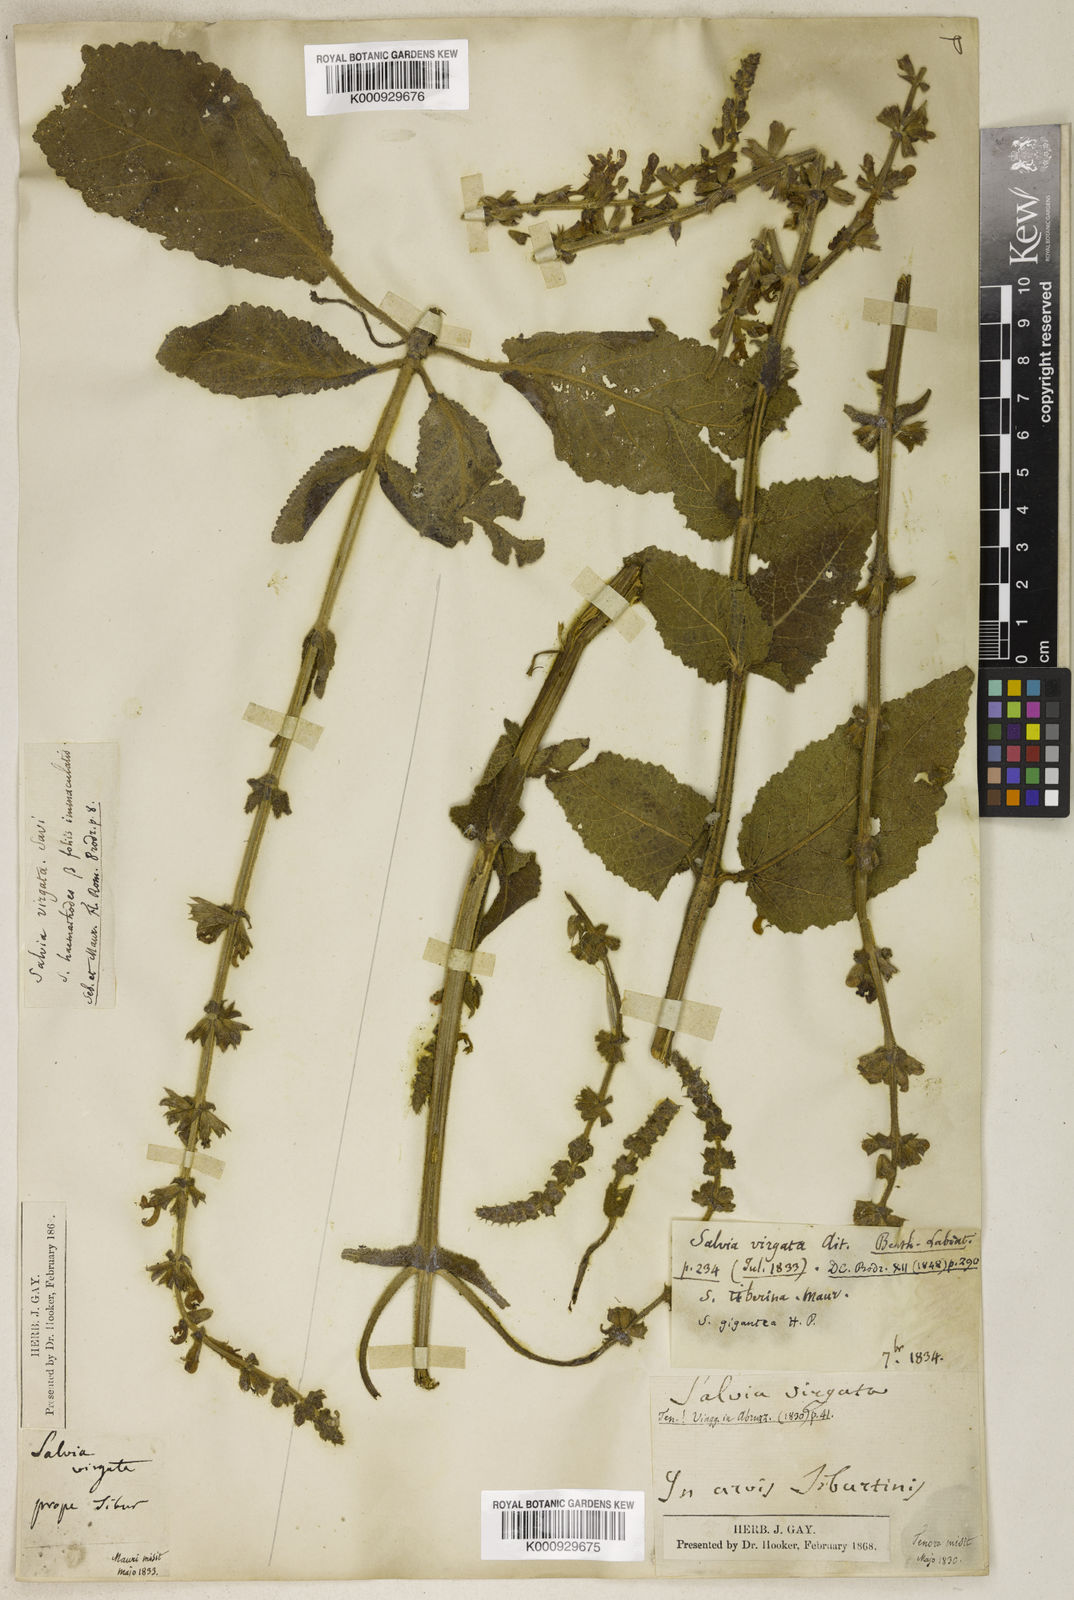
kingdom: Plantae
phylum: Tracheophyta
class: Magnoliopsida
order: Lamiales
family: Lamiaceae
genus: Salvia
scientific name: Salvia
